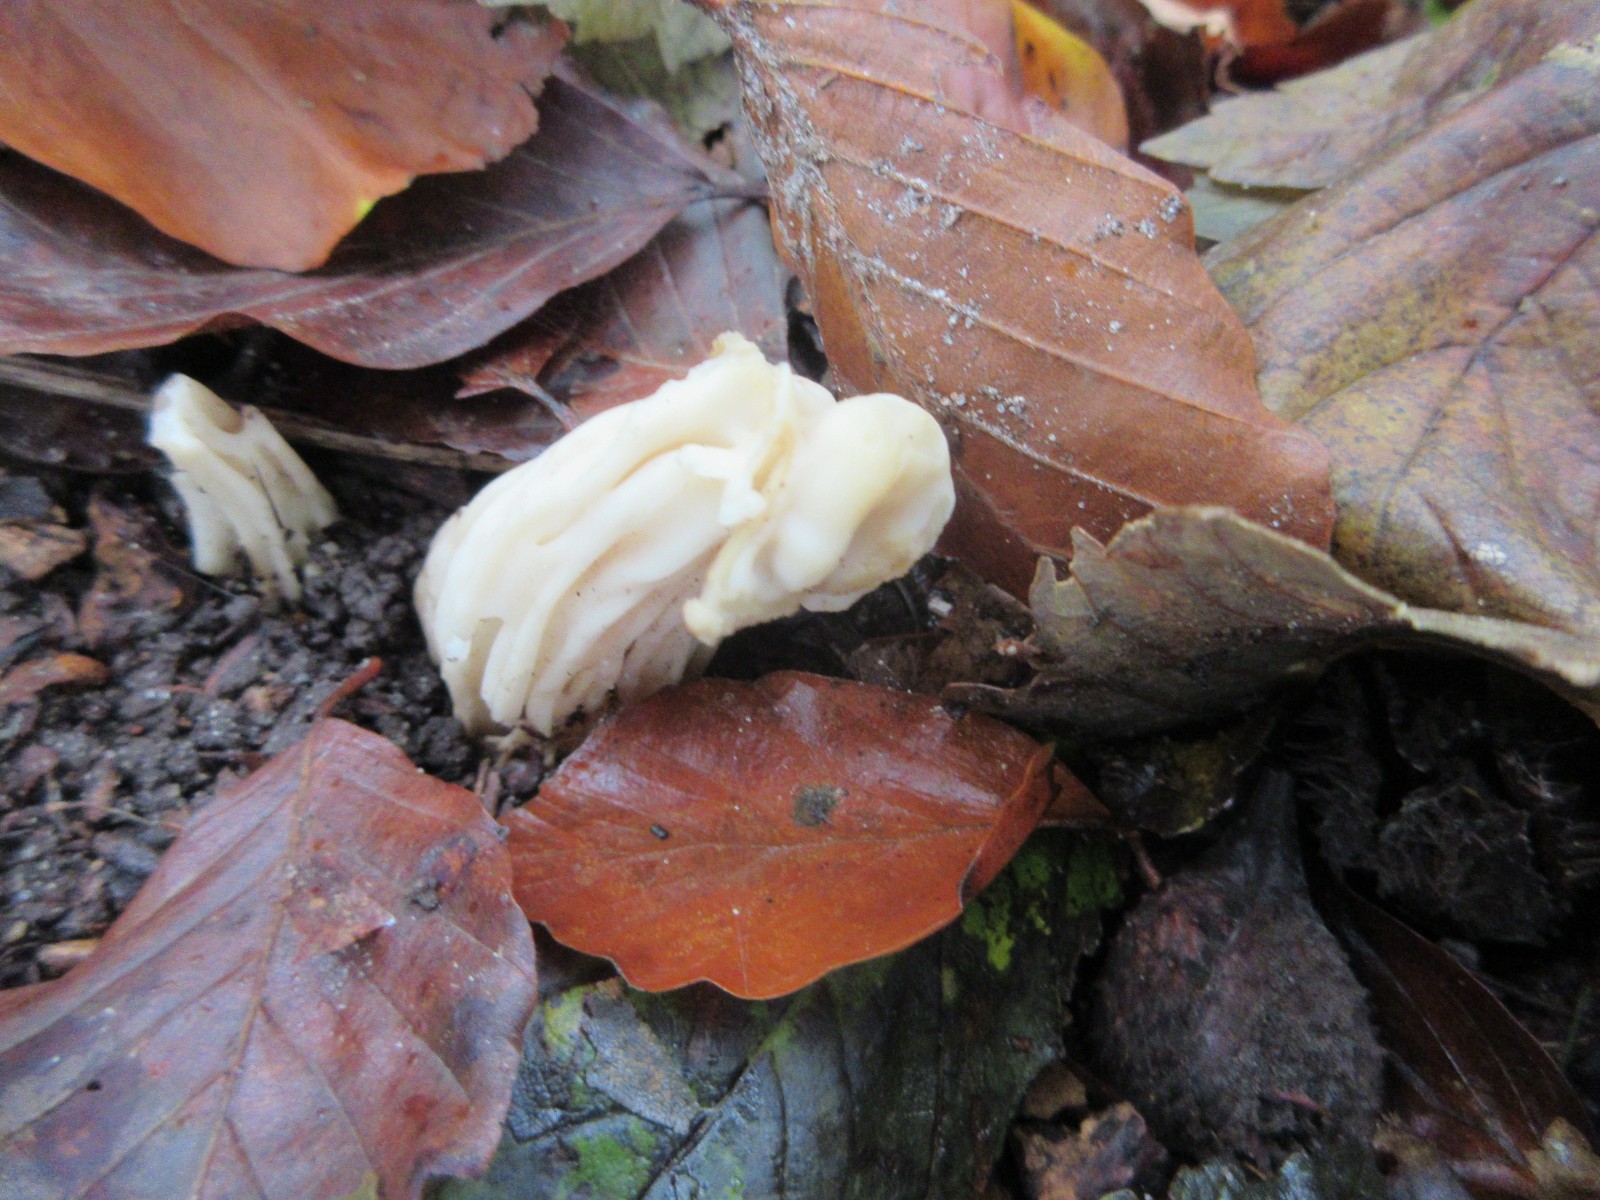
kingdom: Fungi
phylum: Ascomycota
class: Pezizomycetes
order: Pezizales
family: Helvellaceae
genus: Helvella
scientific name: Helvella crispa
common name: kruset foldhat
